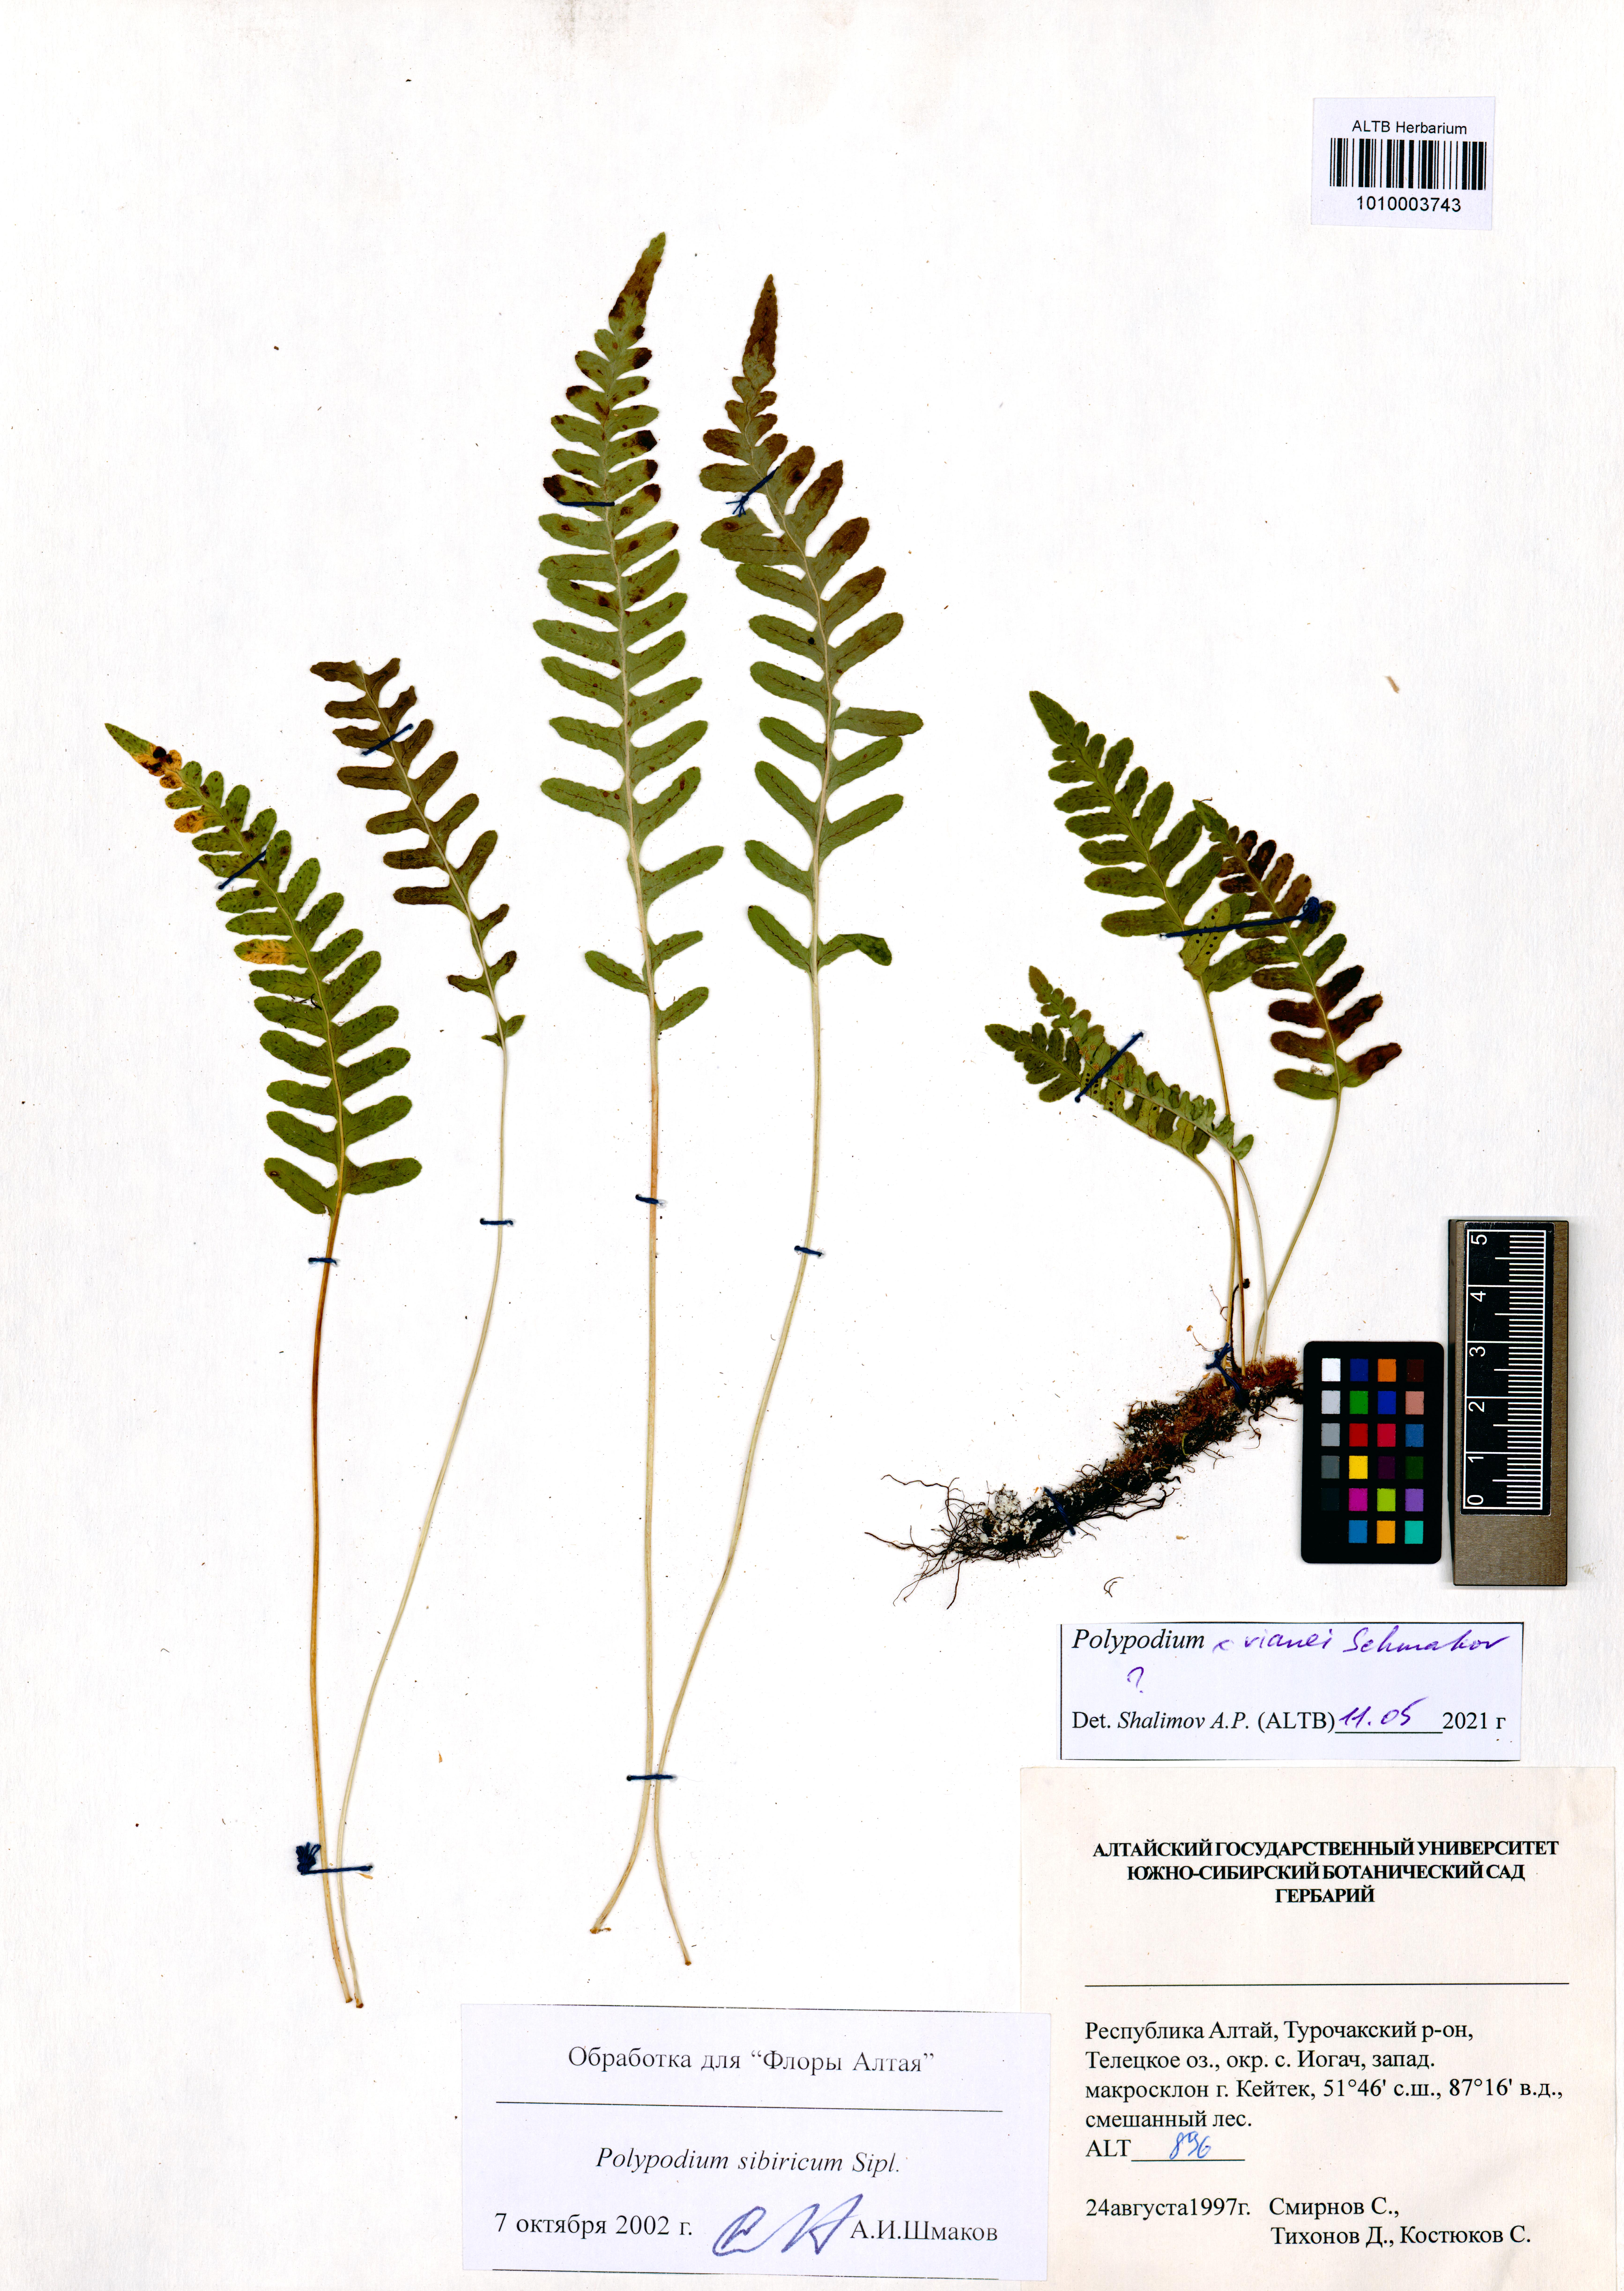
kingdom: Plantae
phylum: Tracheophyta
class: Polypodiopsida
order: Polypodiales
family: Polypodiaceae
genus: Polypodium
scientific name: Polypodium vianei
